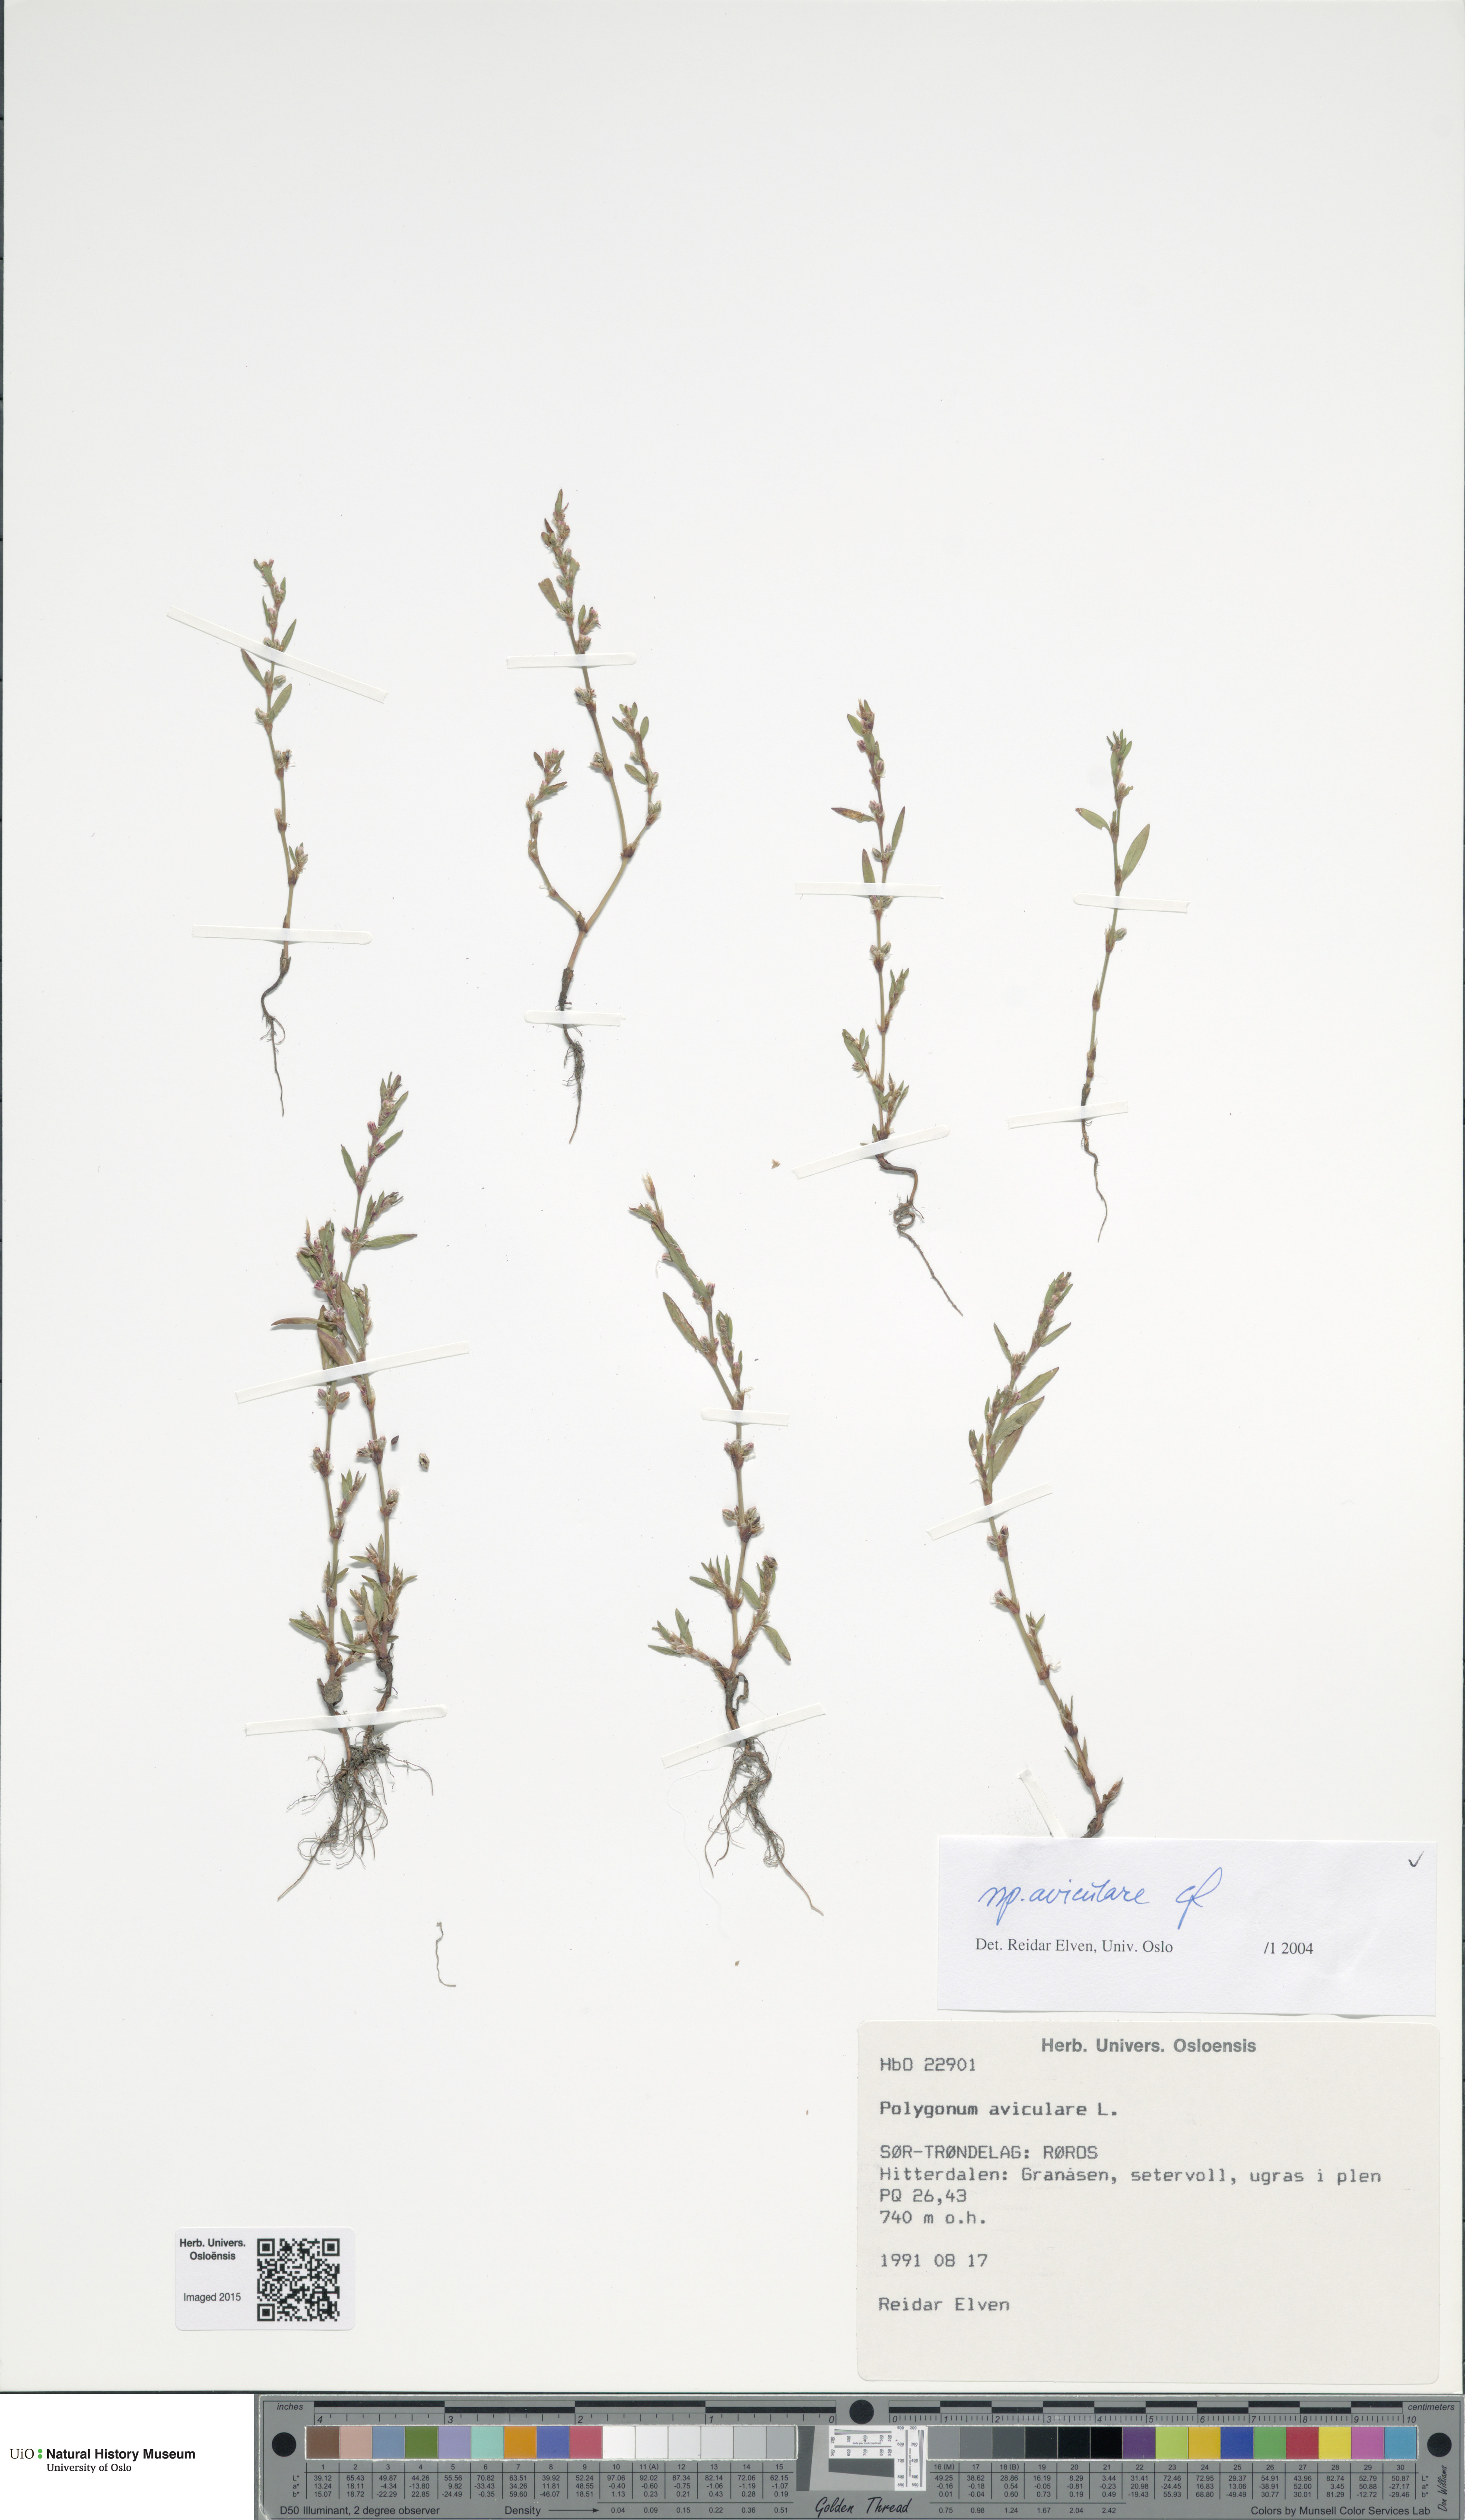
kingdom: Plantae
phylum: Tracheophyta
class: Magnoliopsida
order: Caryophyllales
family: Polygonaceae
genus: Polygonum
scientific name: Polygonum aviculare
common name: Prostrate knotweed
